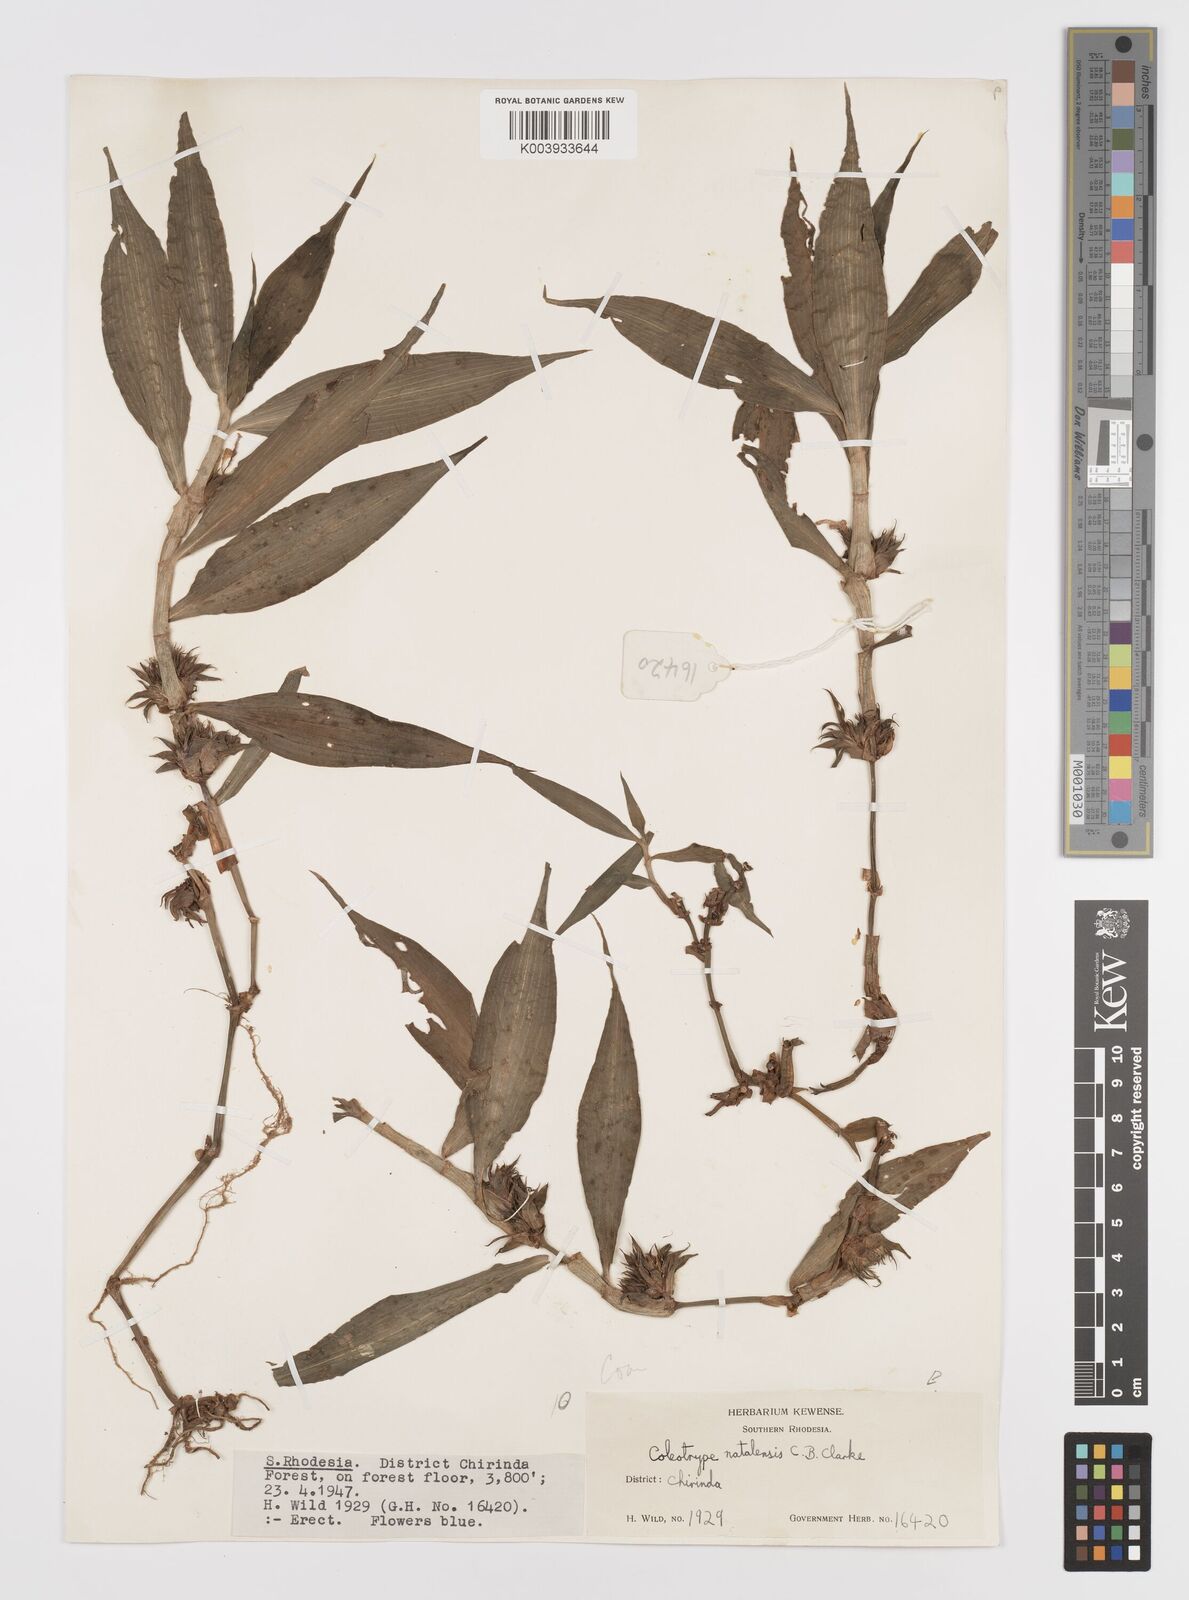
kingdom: Plantae
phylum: Tracheophyta
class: Liliopsida
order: Commelinales
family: Commelinaceae
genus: Coleotrype
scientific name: Coleotrype natalensis
